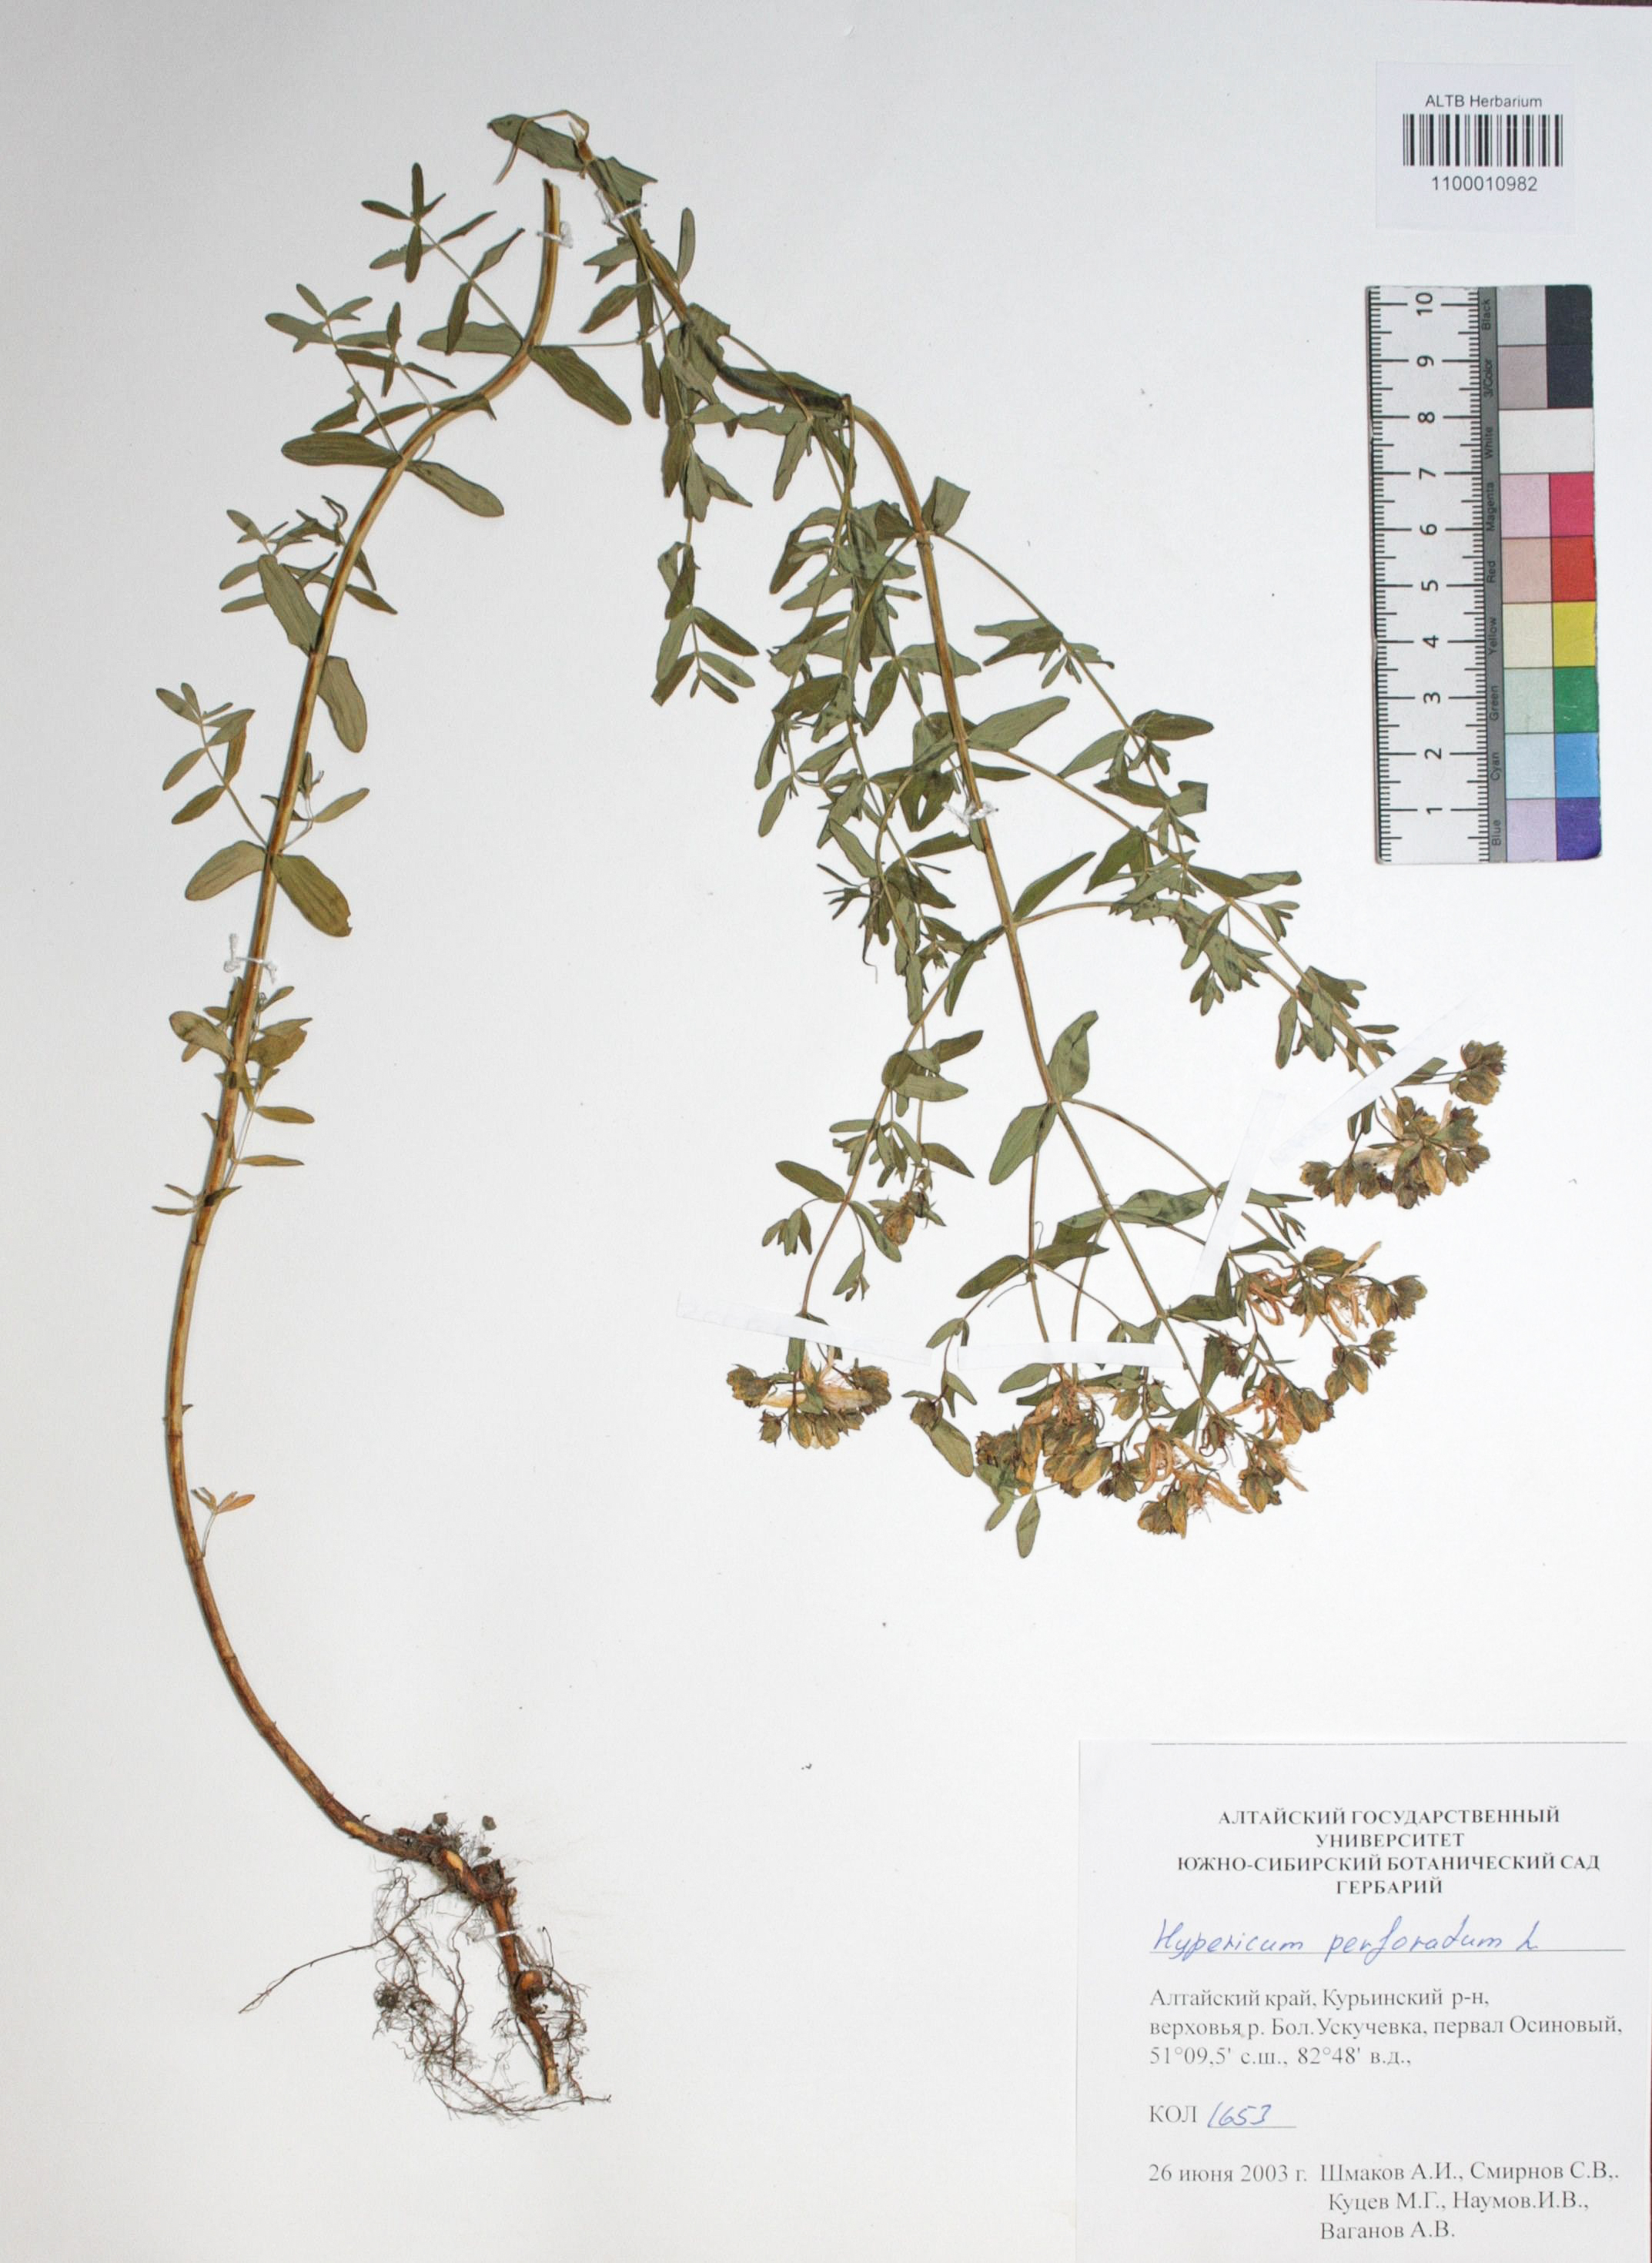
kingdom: Plantae
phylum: Tracheophyta
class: Magnoliopsida
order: Malpighiales
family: Hypericaceae
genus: Hypericum
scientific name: Hypericum perforatum
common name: Common st. johnswort
